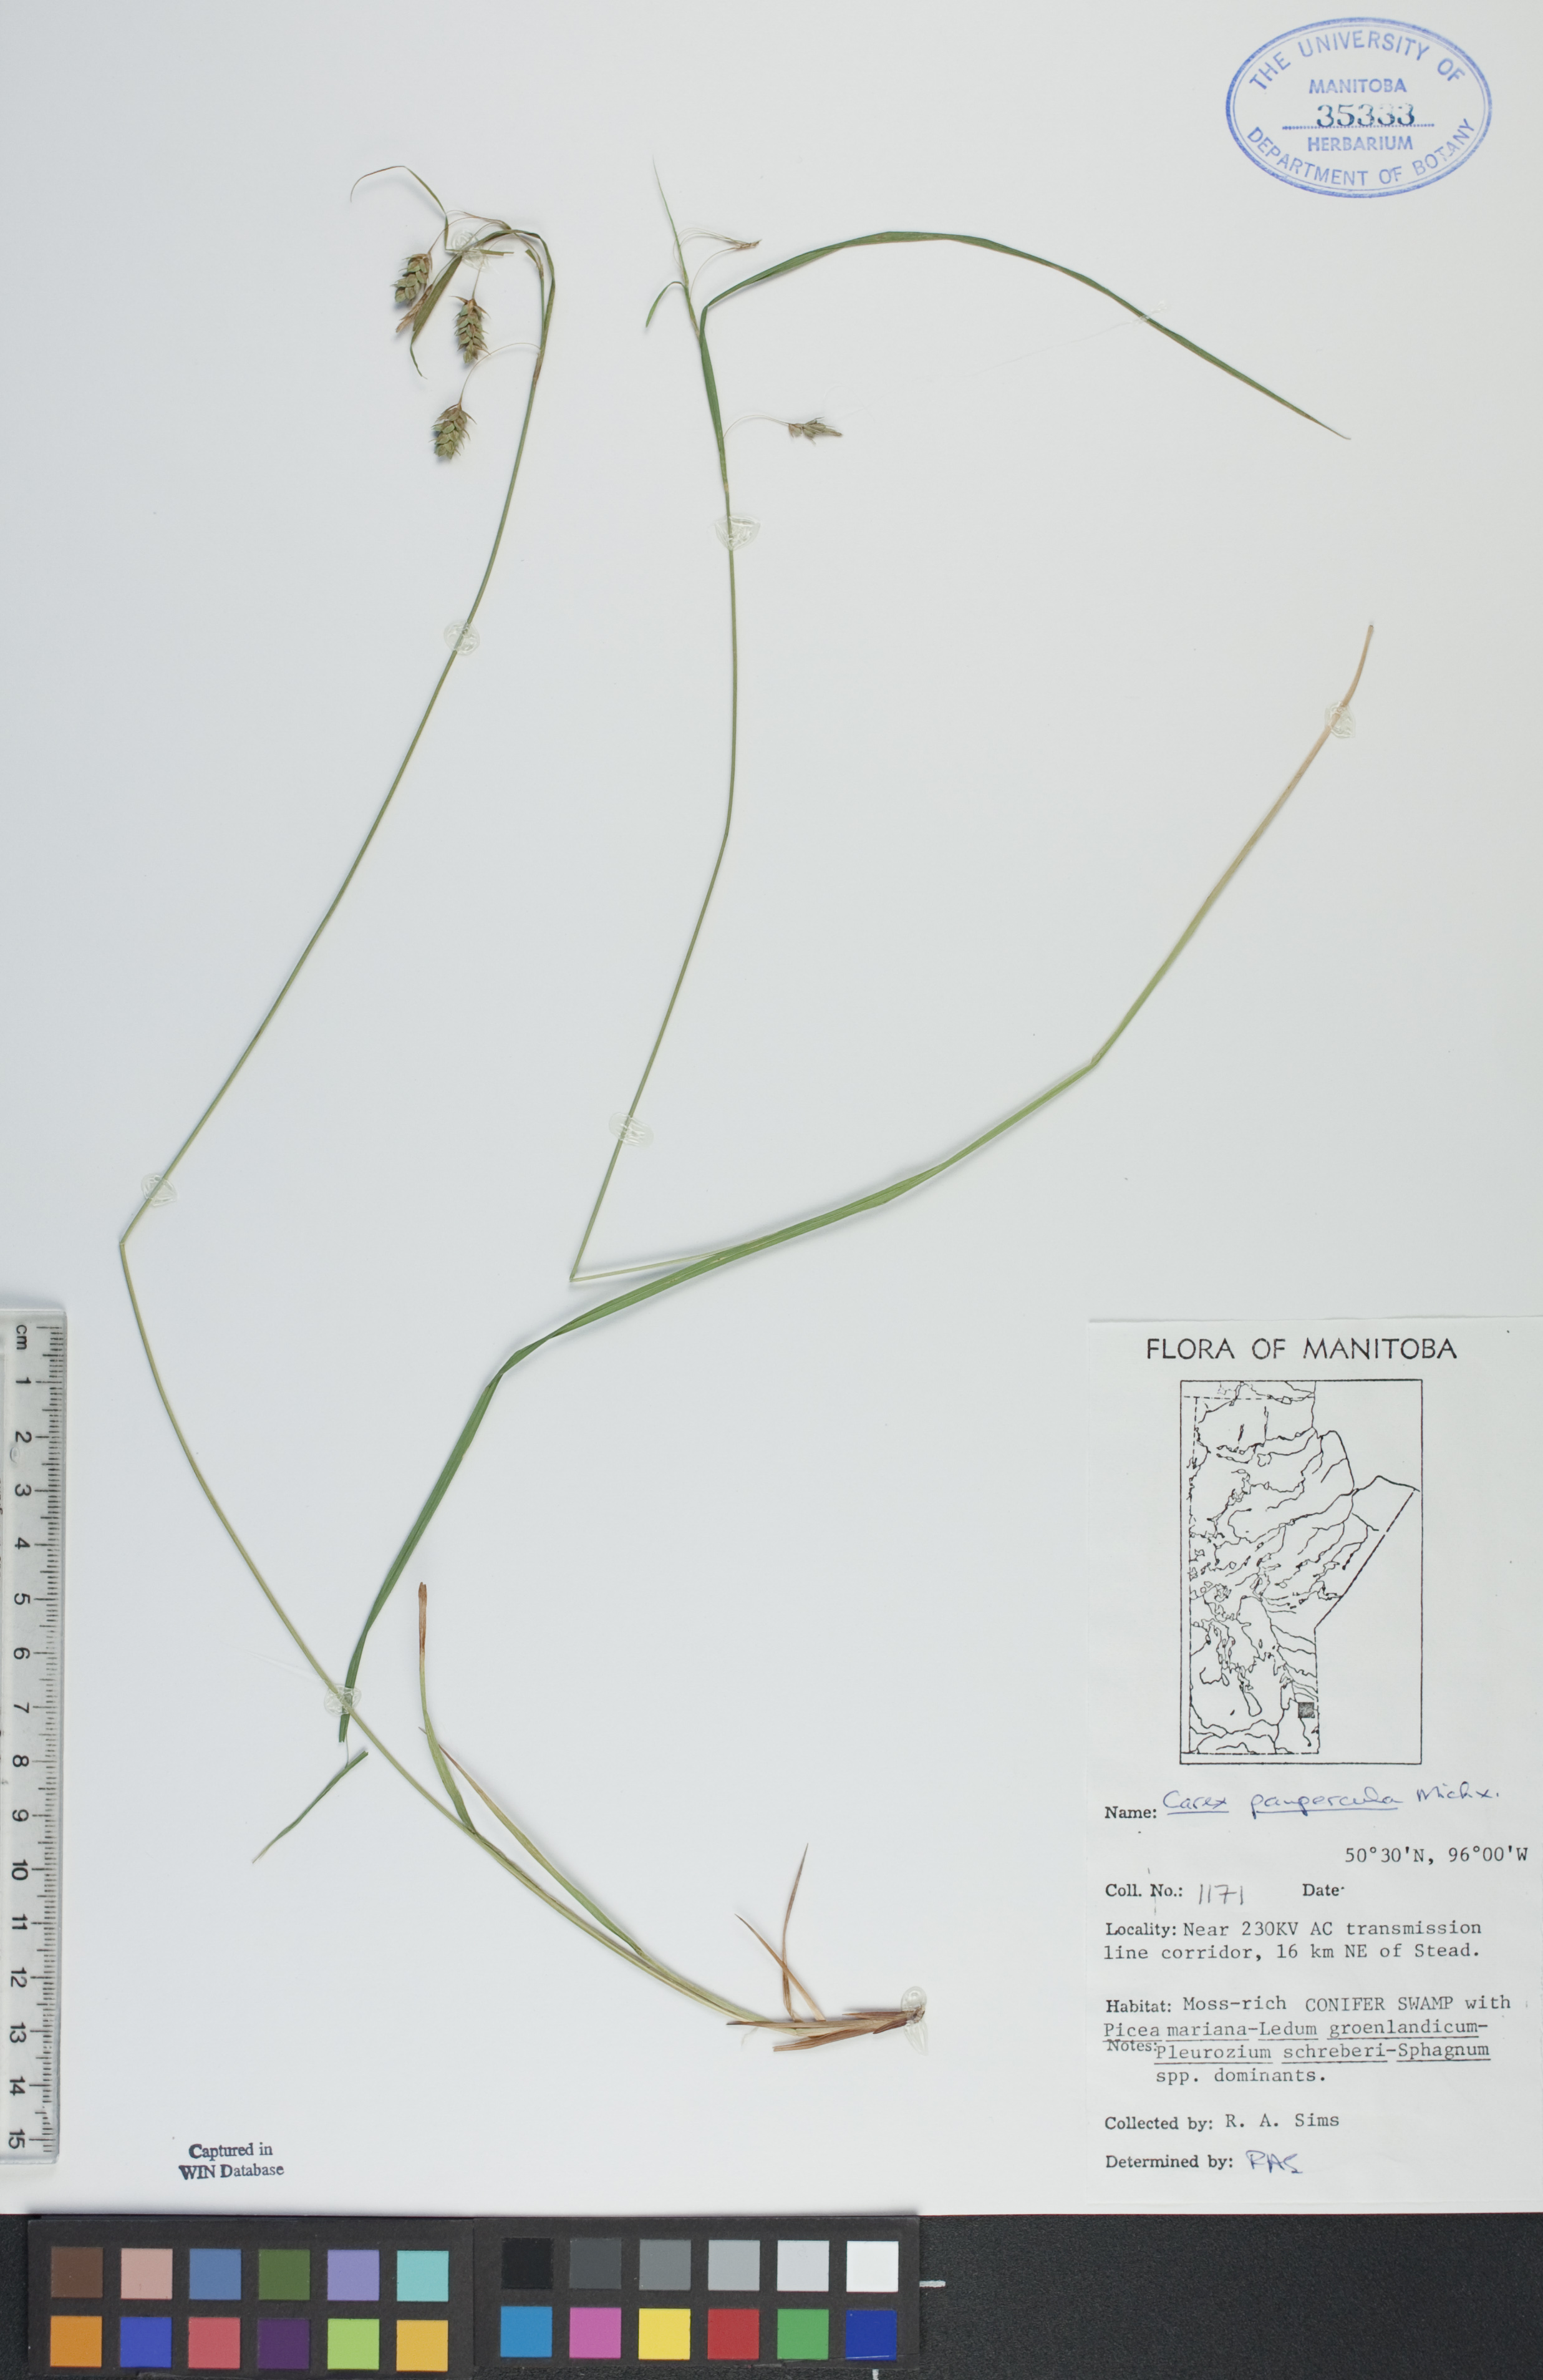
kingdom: Plantae
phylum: Tracheophyta
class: Liliopsida
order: Poales
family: Cyperaceae
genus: Carex
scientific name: Carex magellanica
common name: Bog sedge
